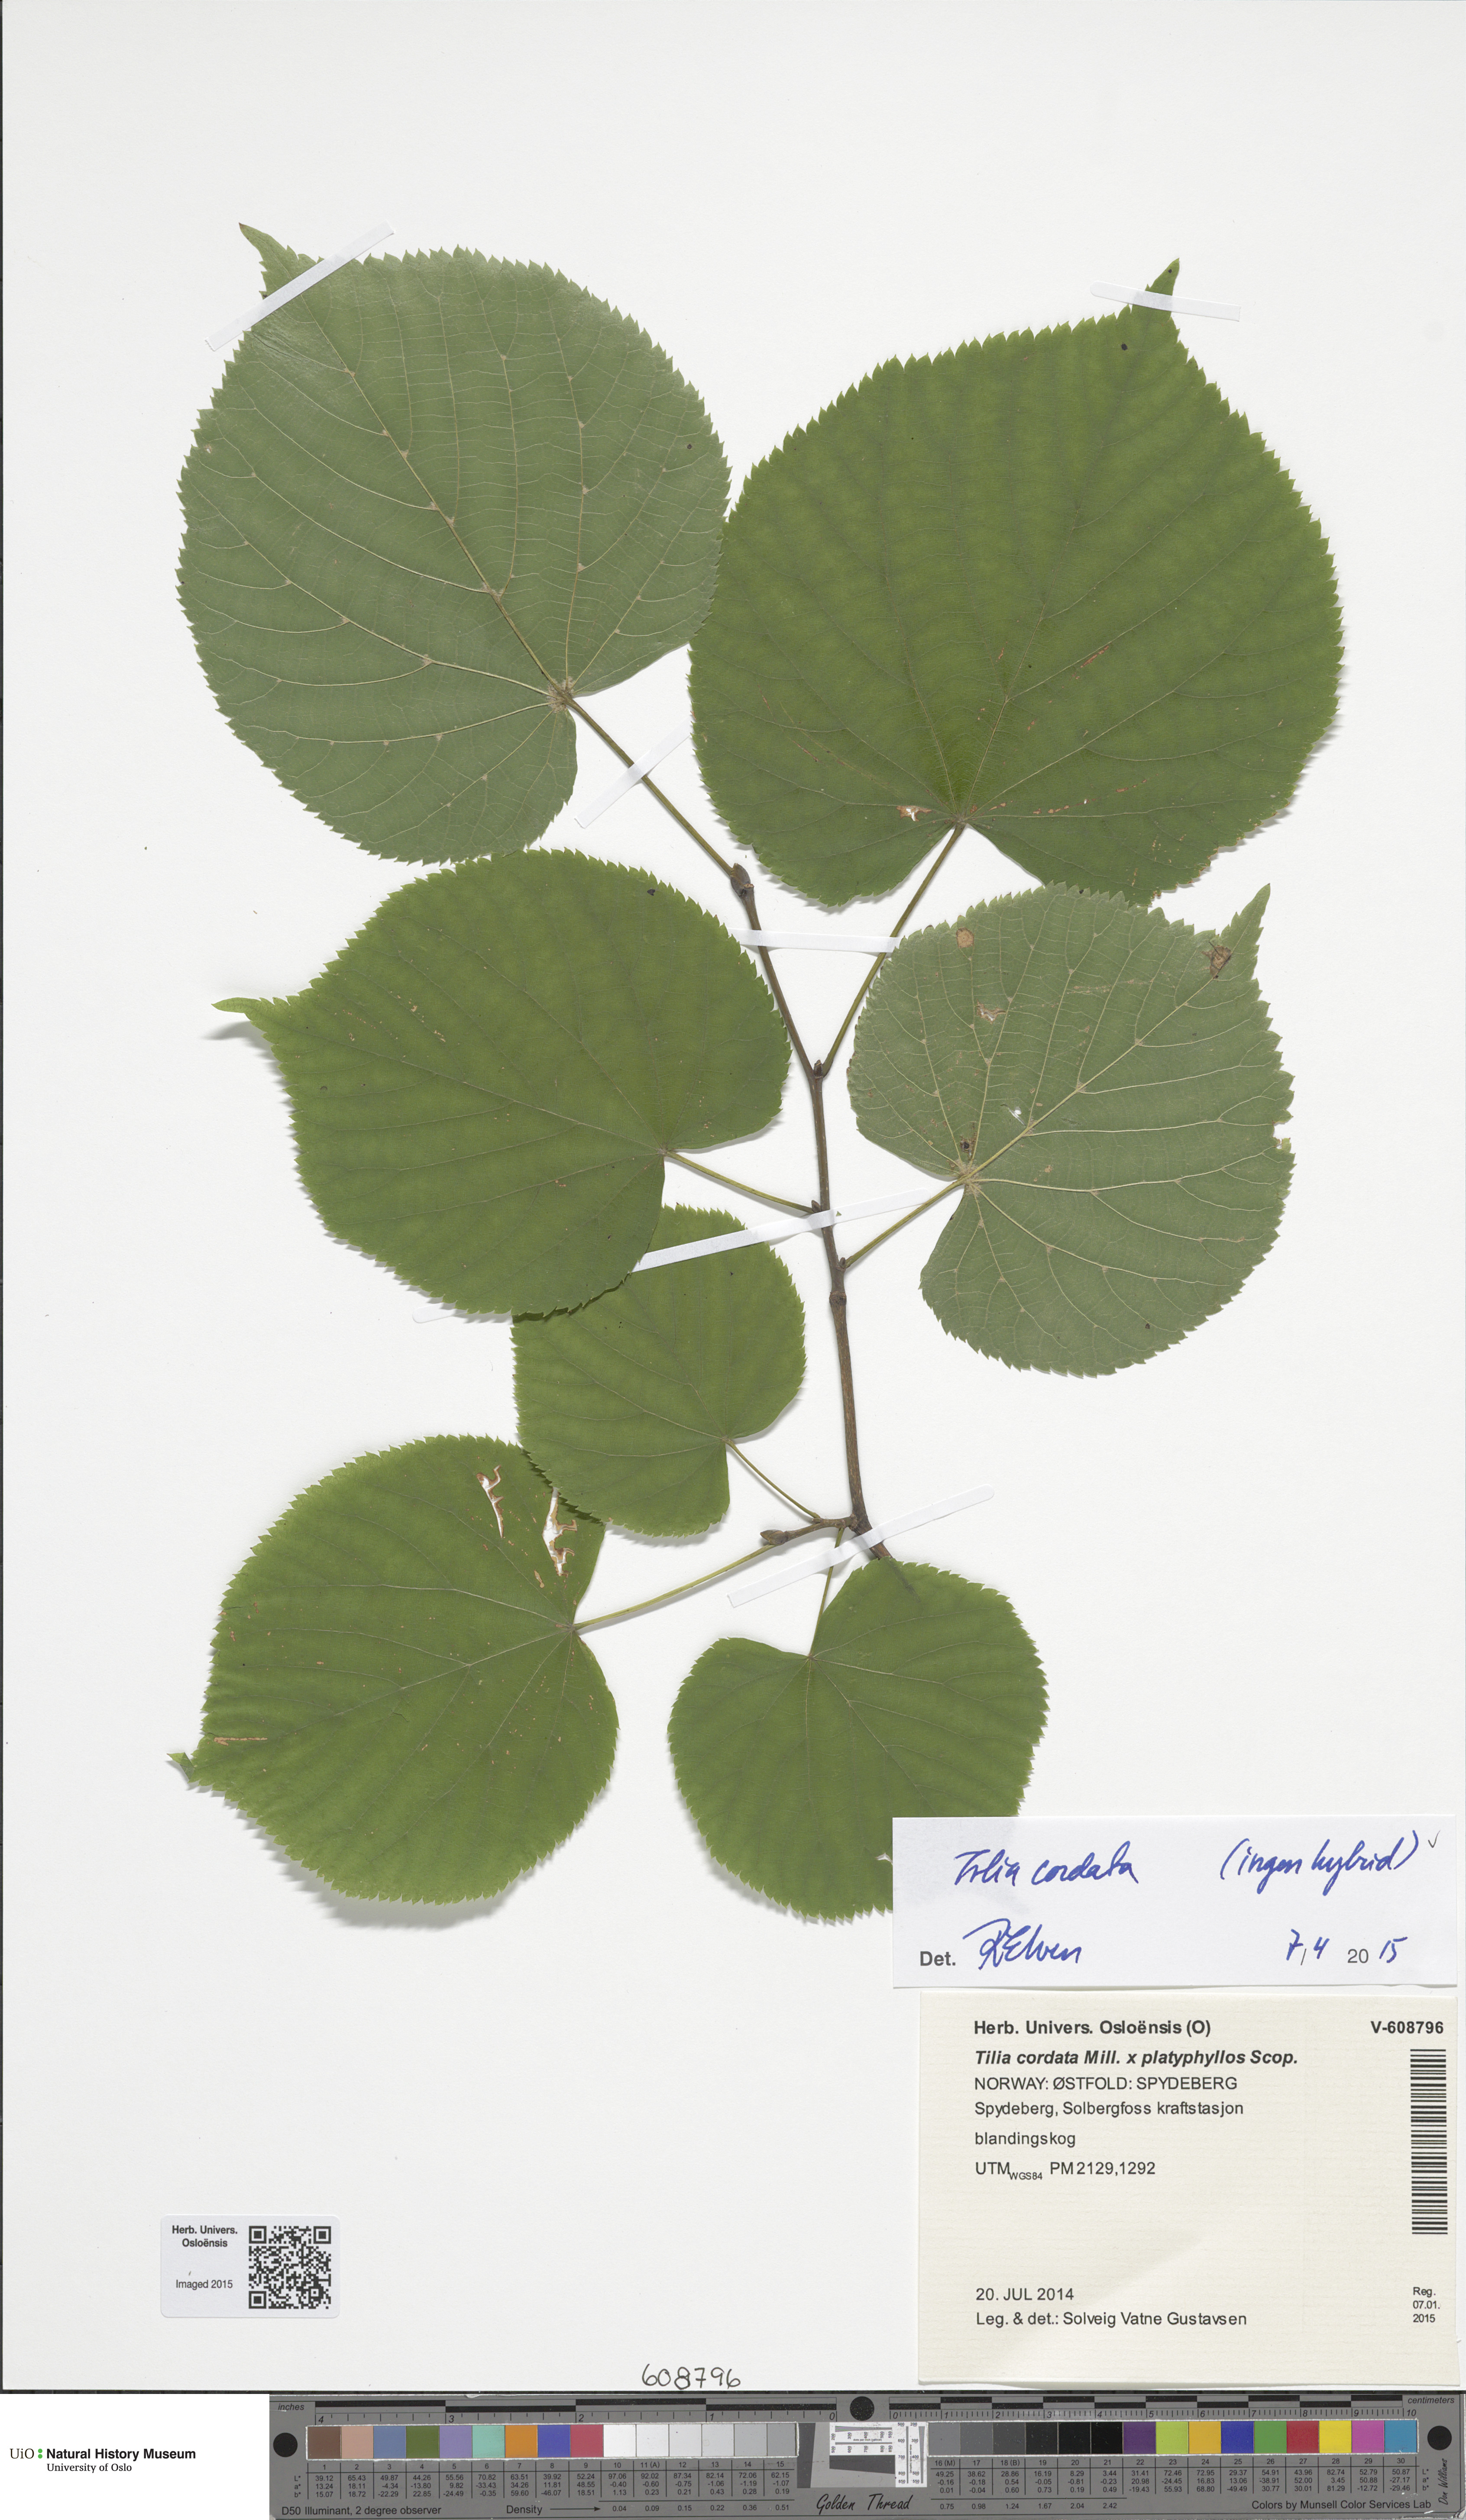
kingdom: Plantae
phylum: Tracheophyta
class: Magnoliopsida
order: Malvales
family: Malvaceae
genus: Tilia
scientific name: Tilia cordata
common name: Small-leaved lime
